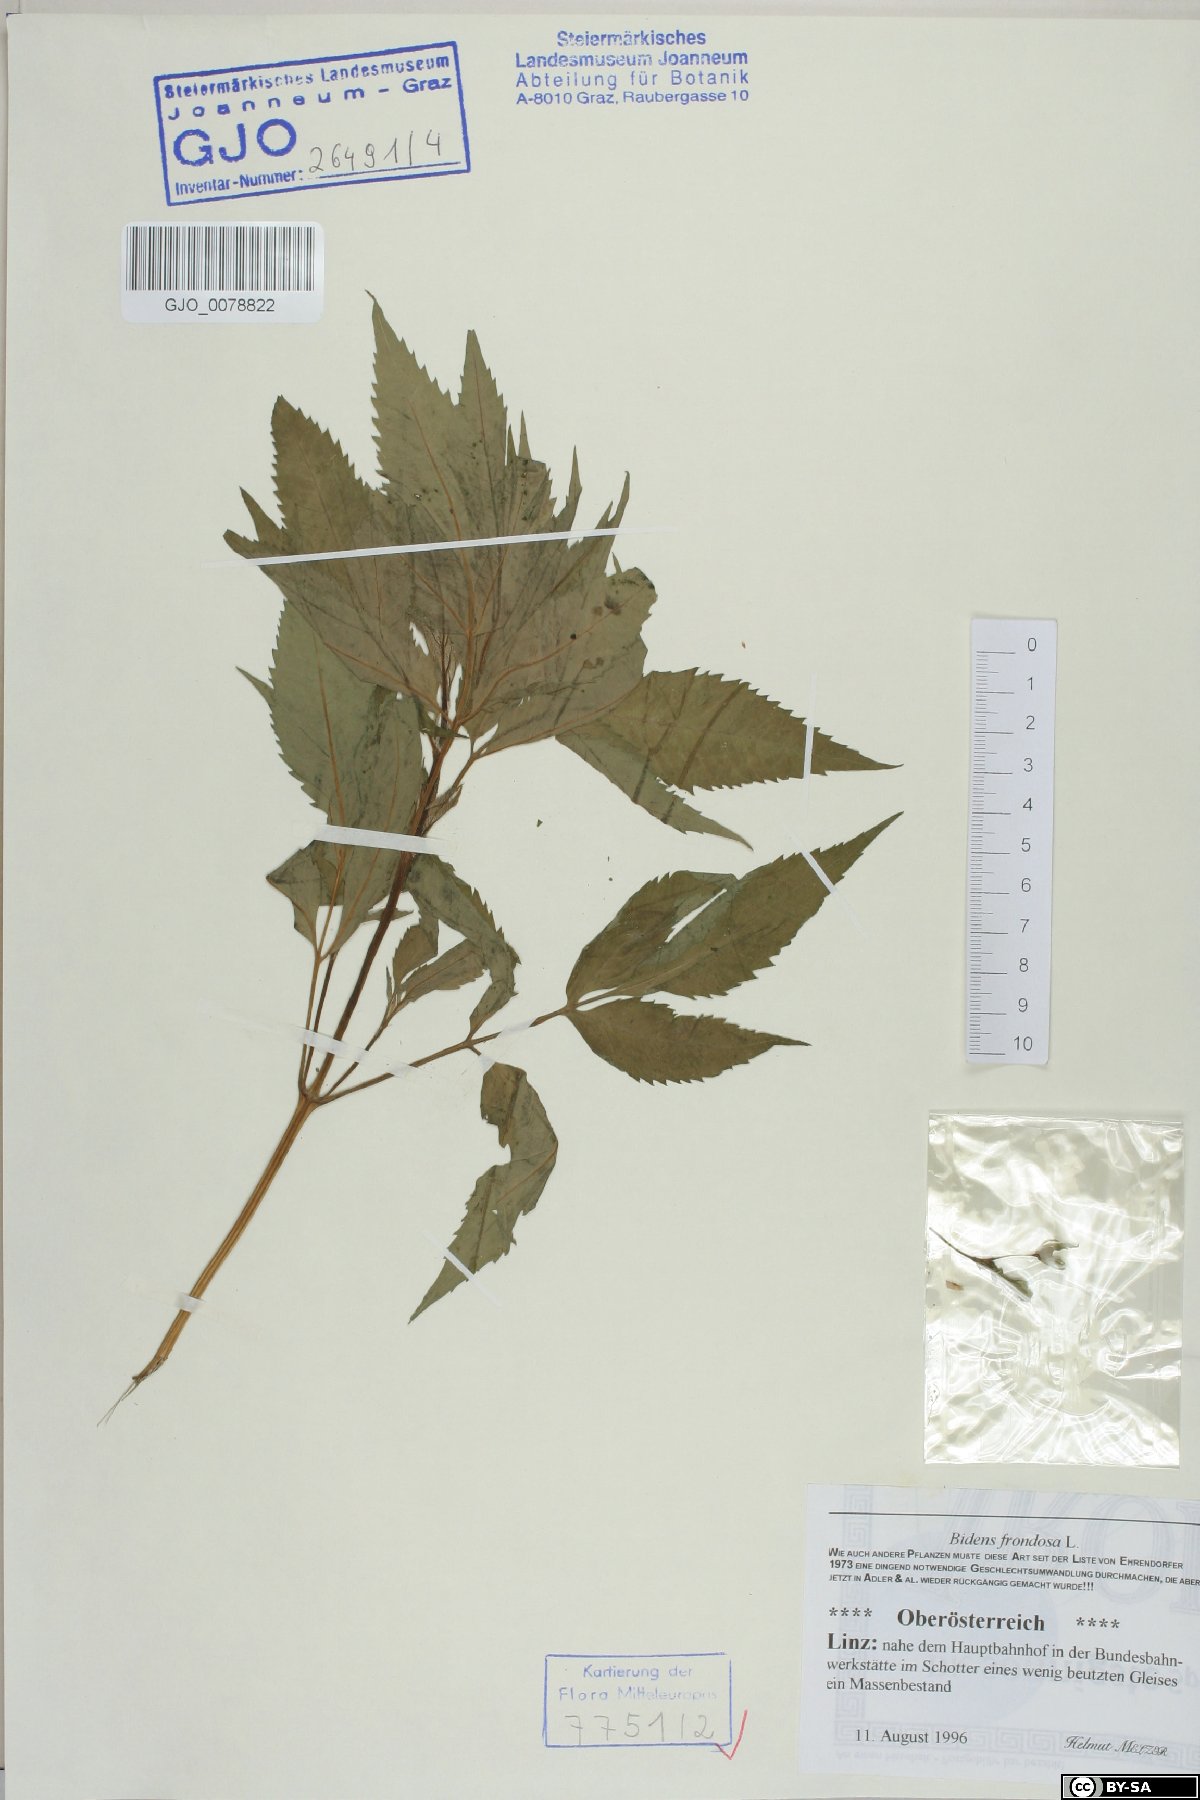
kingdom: Plantae
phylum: Tracheophyta
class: Magnoliopsida
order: Asterales
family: Asteraceae
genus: Bidens
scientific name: Bidens frondosa
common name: Beggarticks
